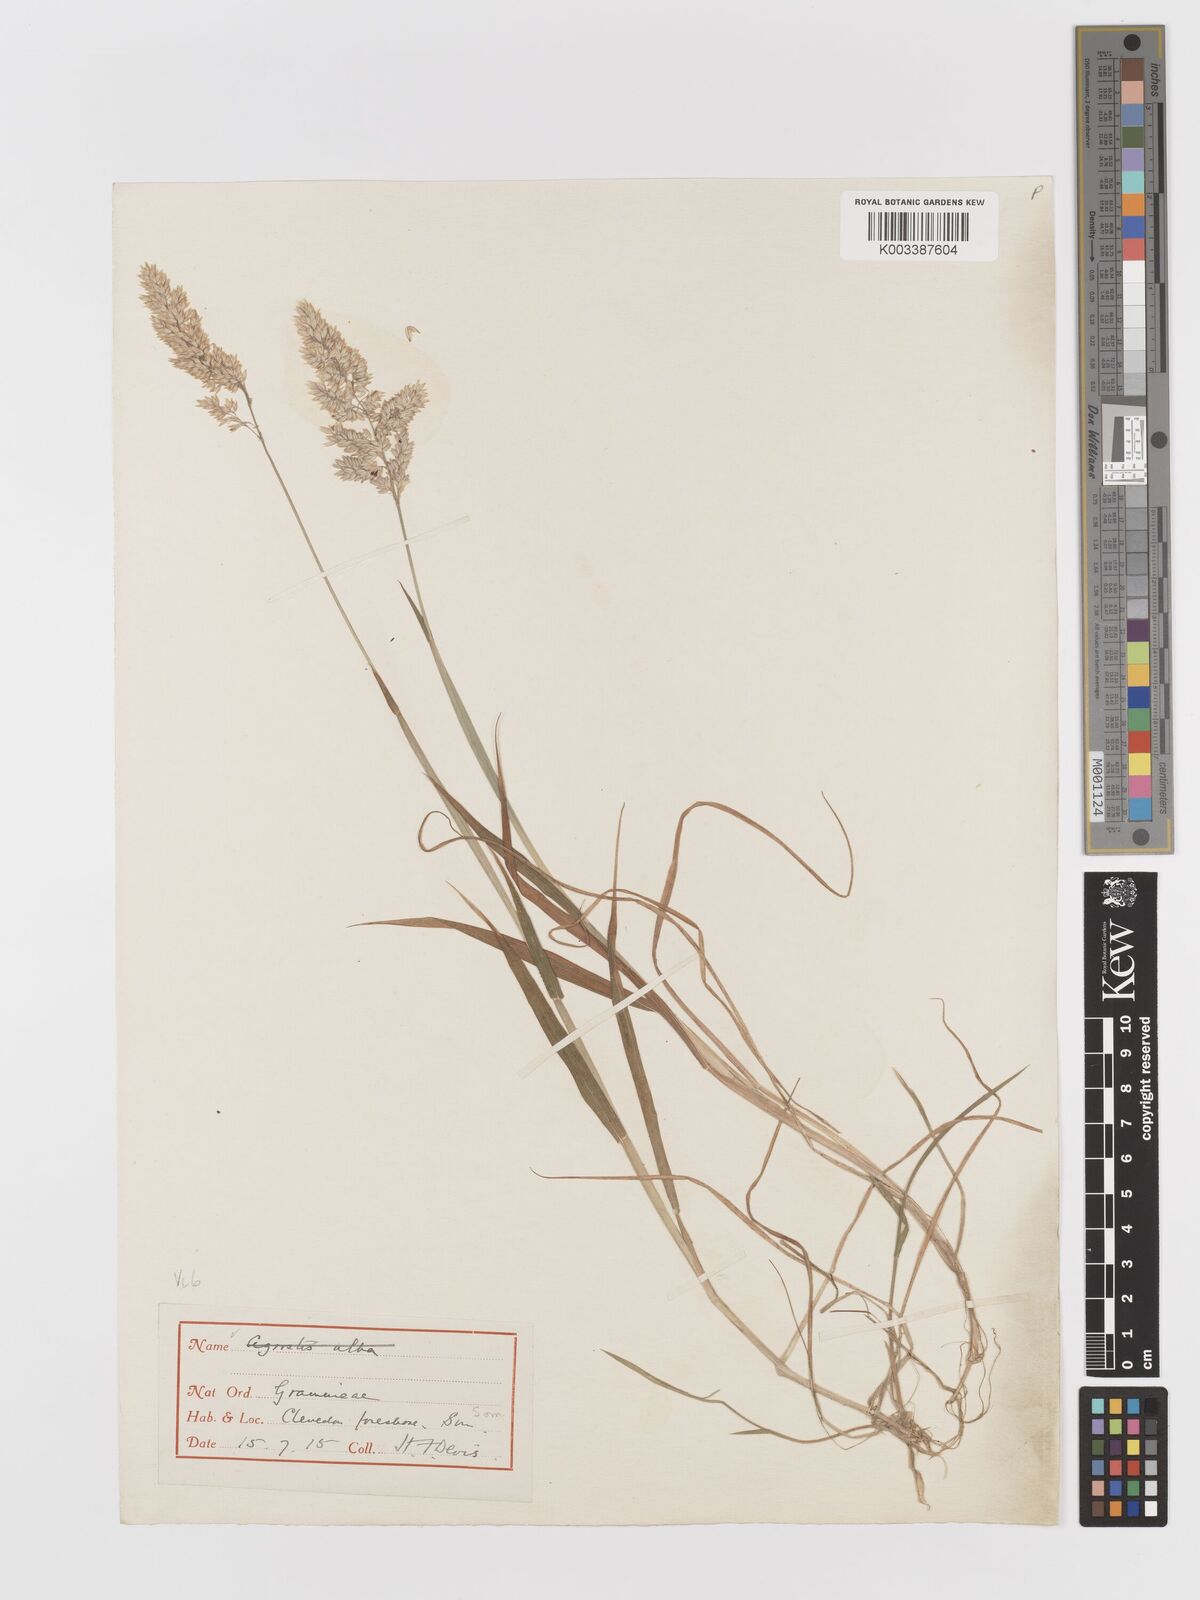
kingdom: Plantae
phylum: Tracheophyta
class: Liliopsida
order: Poales
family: Poaceae
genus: Holcus
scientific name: Holcus lanatus
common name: Yorkshire-fog
